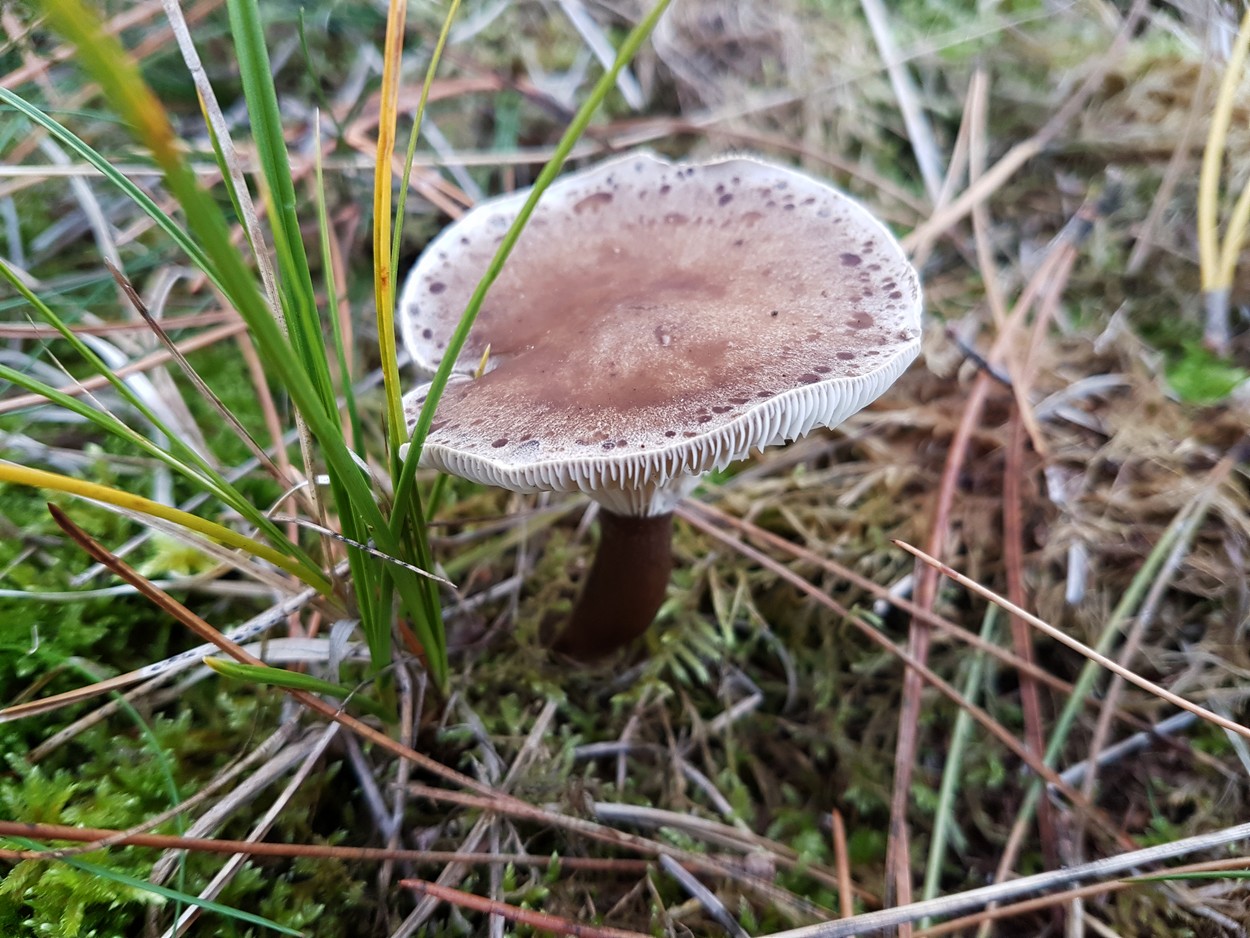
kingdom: Fungi
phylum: Basidiomycota
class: Agaricomycetes
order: Agaricales
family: Hygrophoraceae
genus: Ampulloclitocybe
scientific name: Ampulloclitocybe clavipes
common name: køllefod
